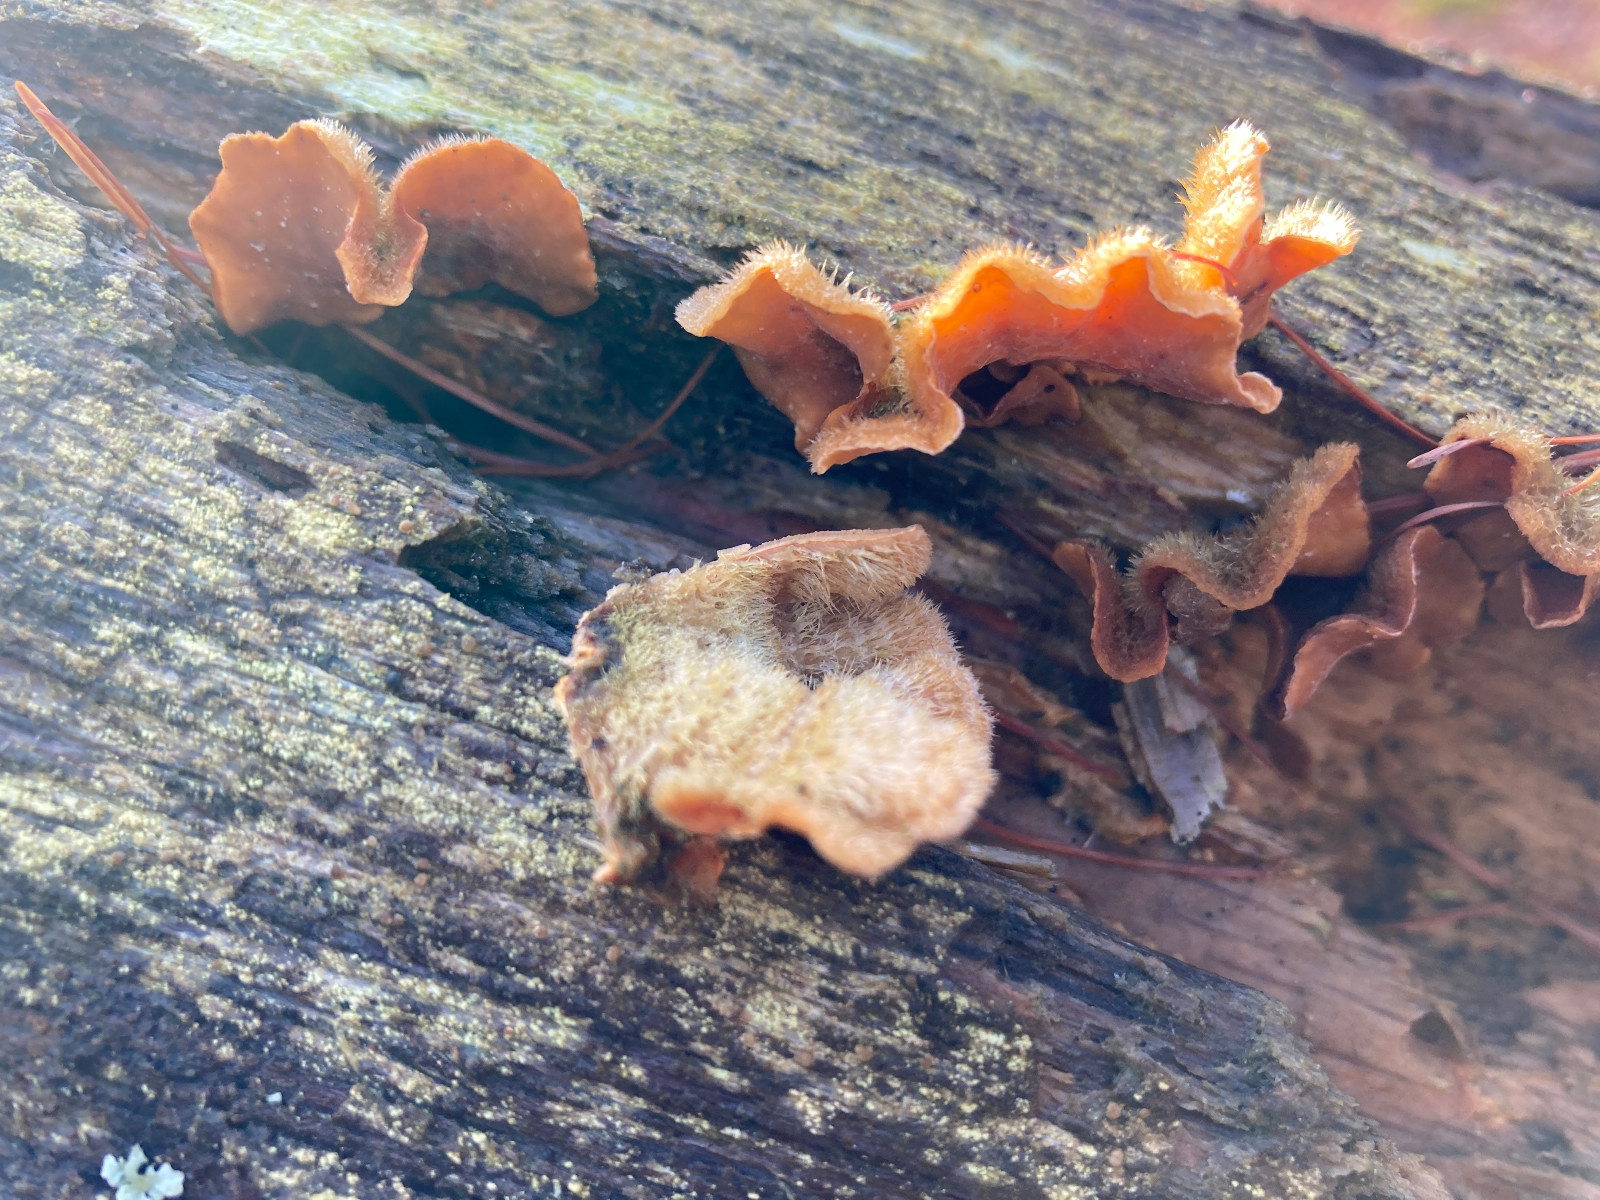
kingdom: Fungi
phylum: Basidiomycota
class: Agaricomycetes
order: Russulales
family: Stereaceae
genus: Stereum
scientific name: Stereum hirsutum
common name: håret lædersvamp
